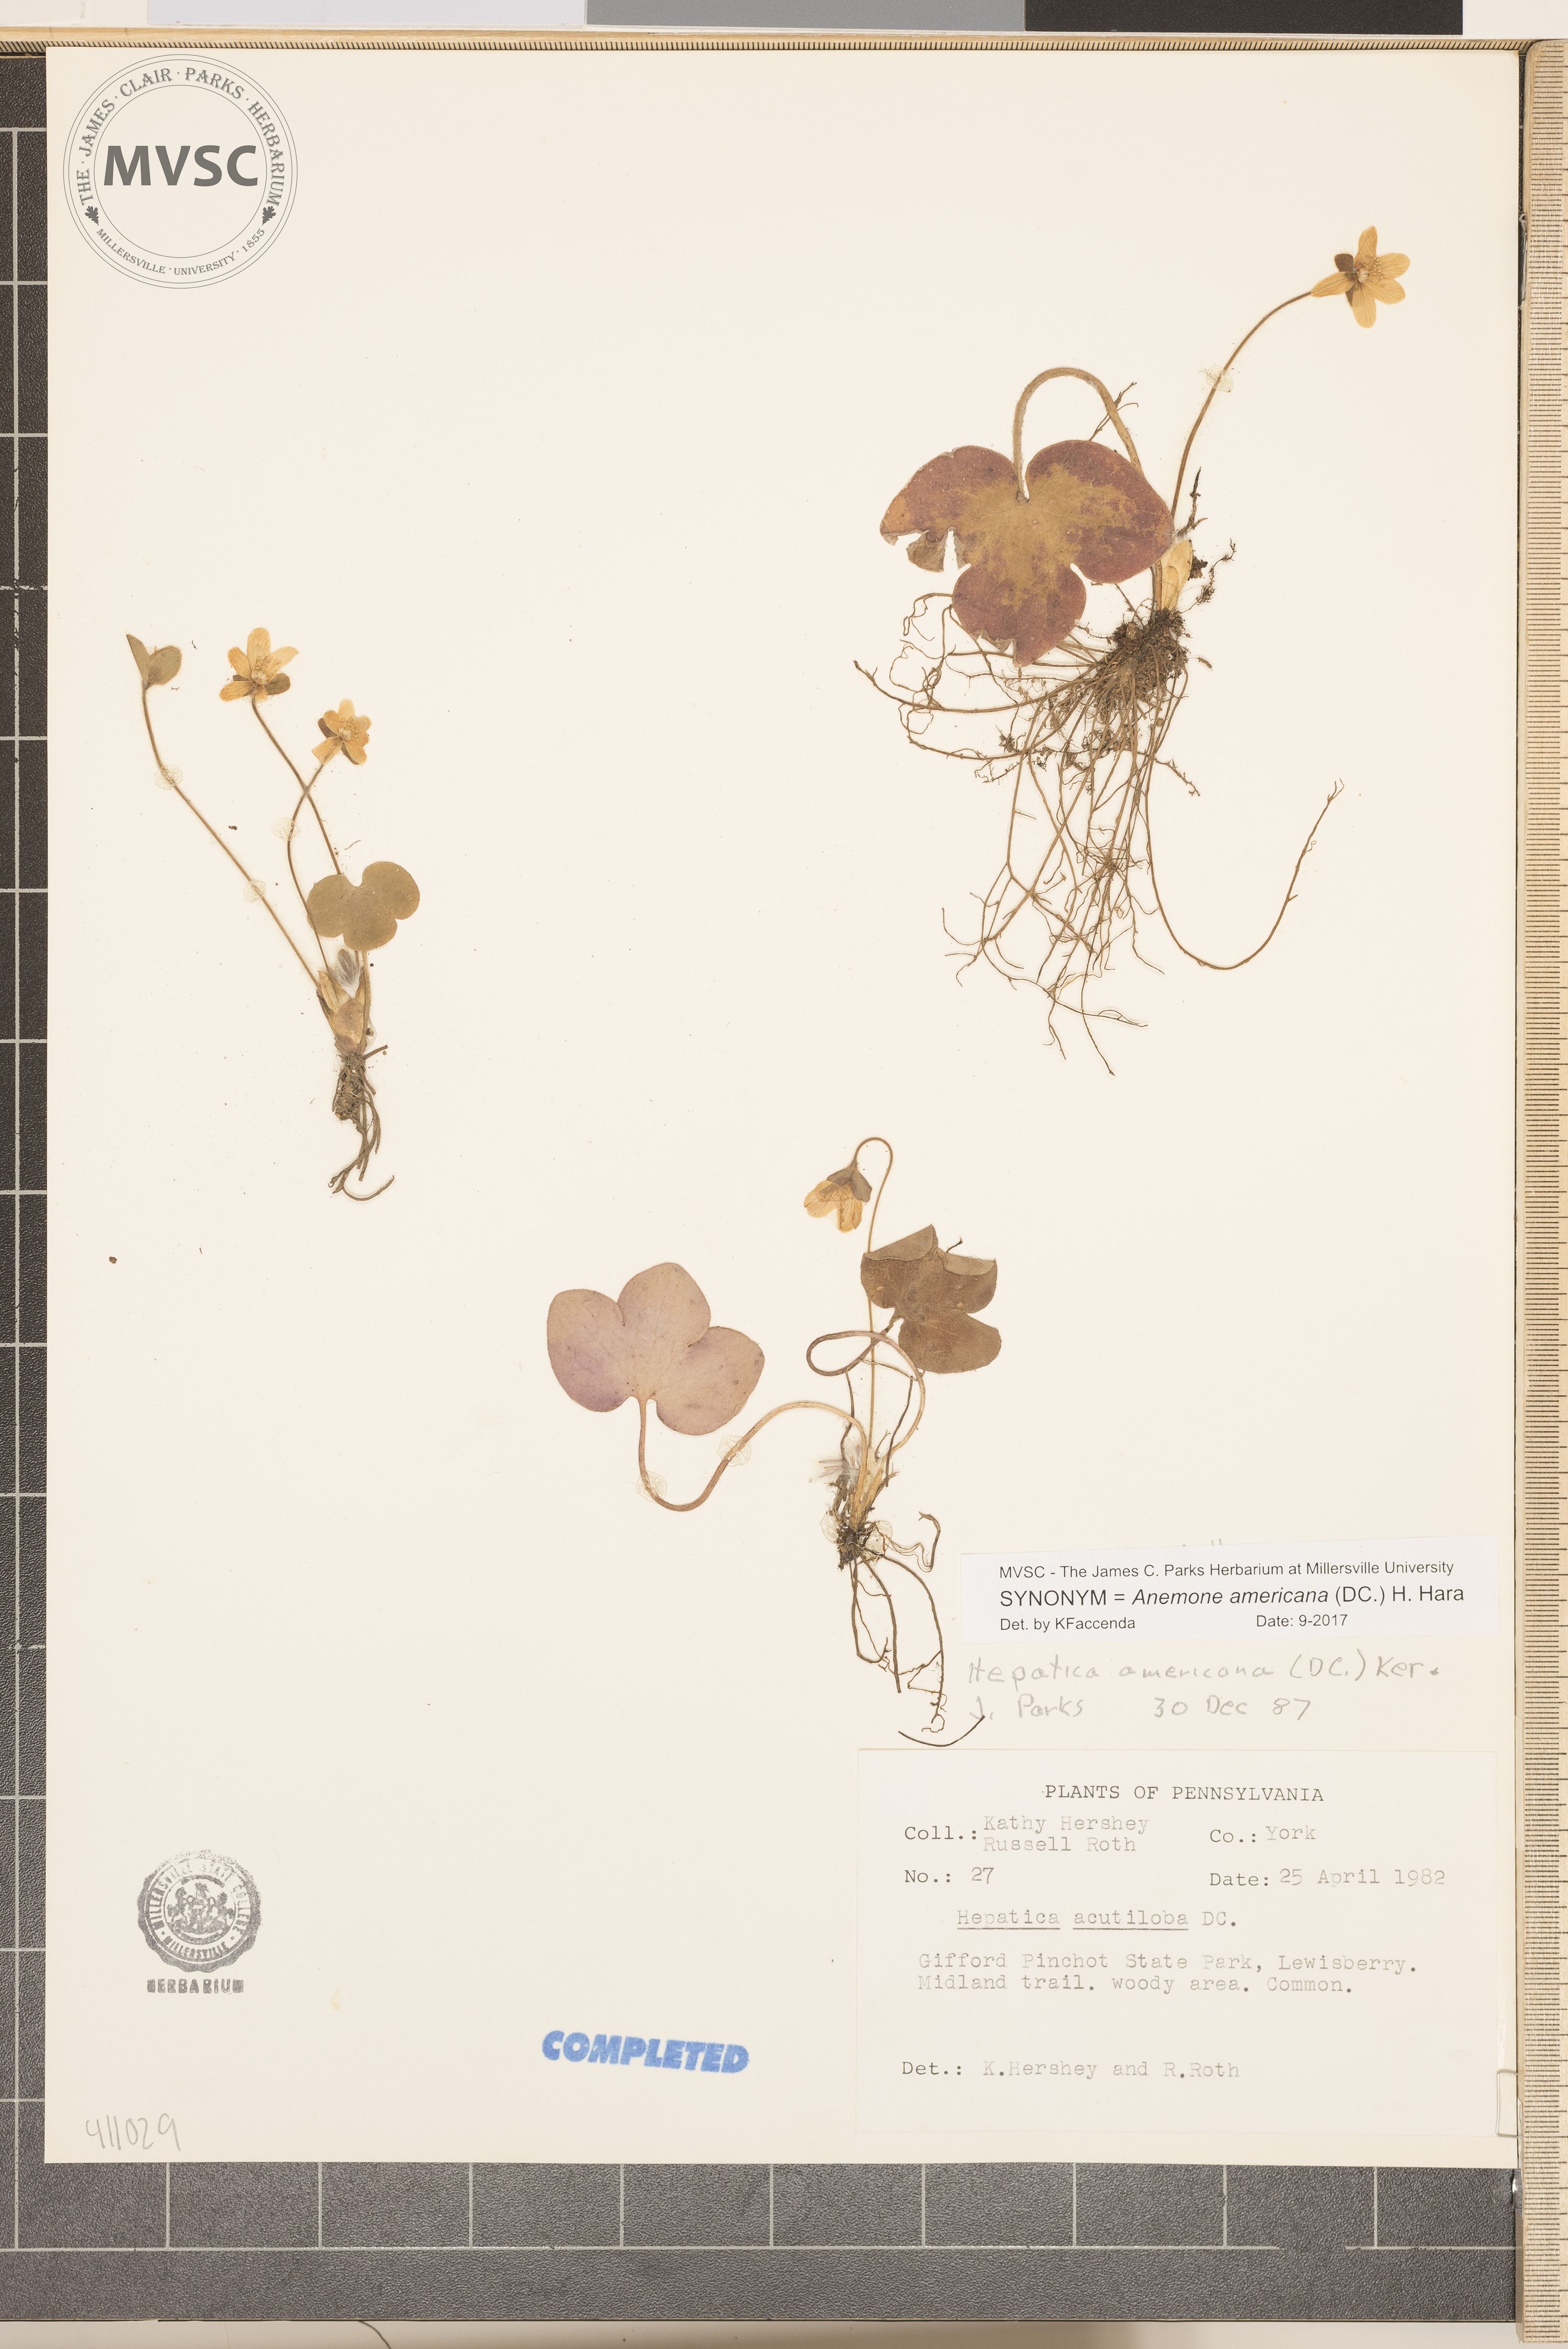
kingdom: Plantae
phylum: Tracheophyta
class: Magnoliopsida
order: Ranunculales
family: Ranunculaceae
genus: Hepatica
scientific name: Hepatica americana
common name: American hepatica
